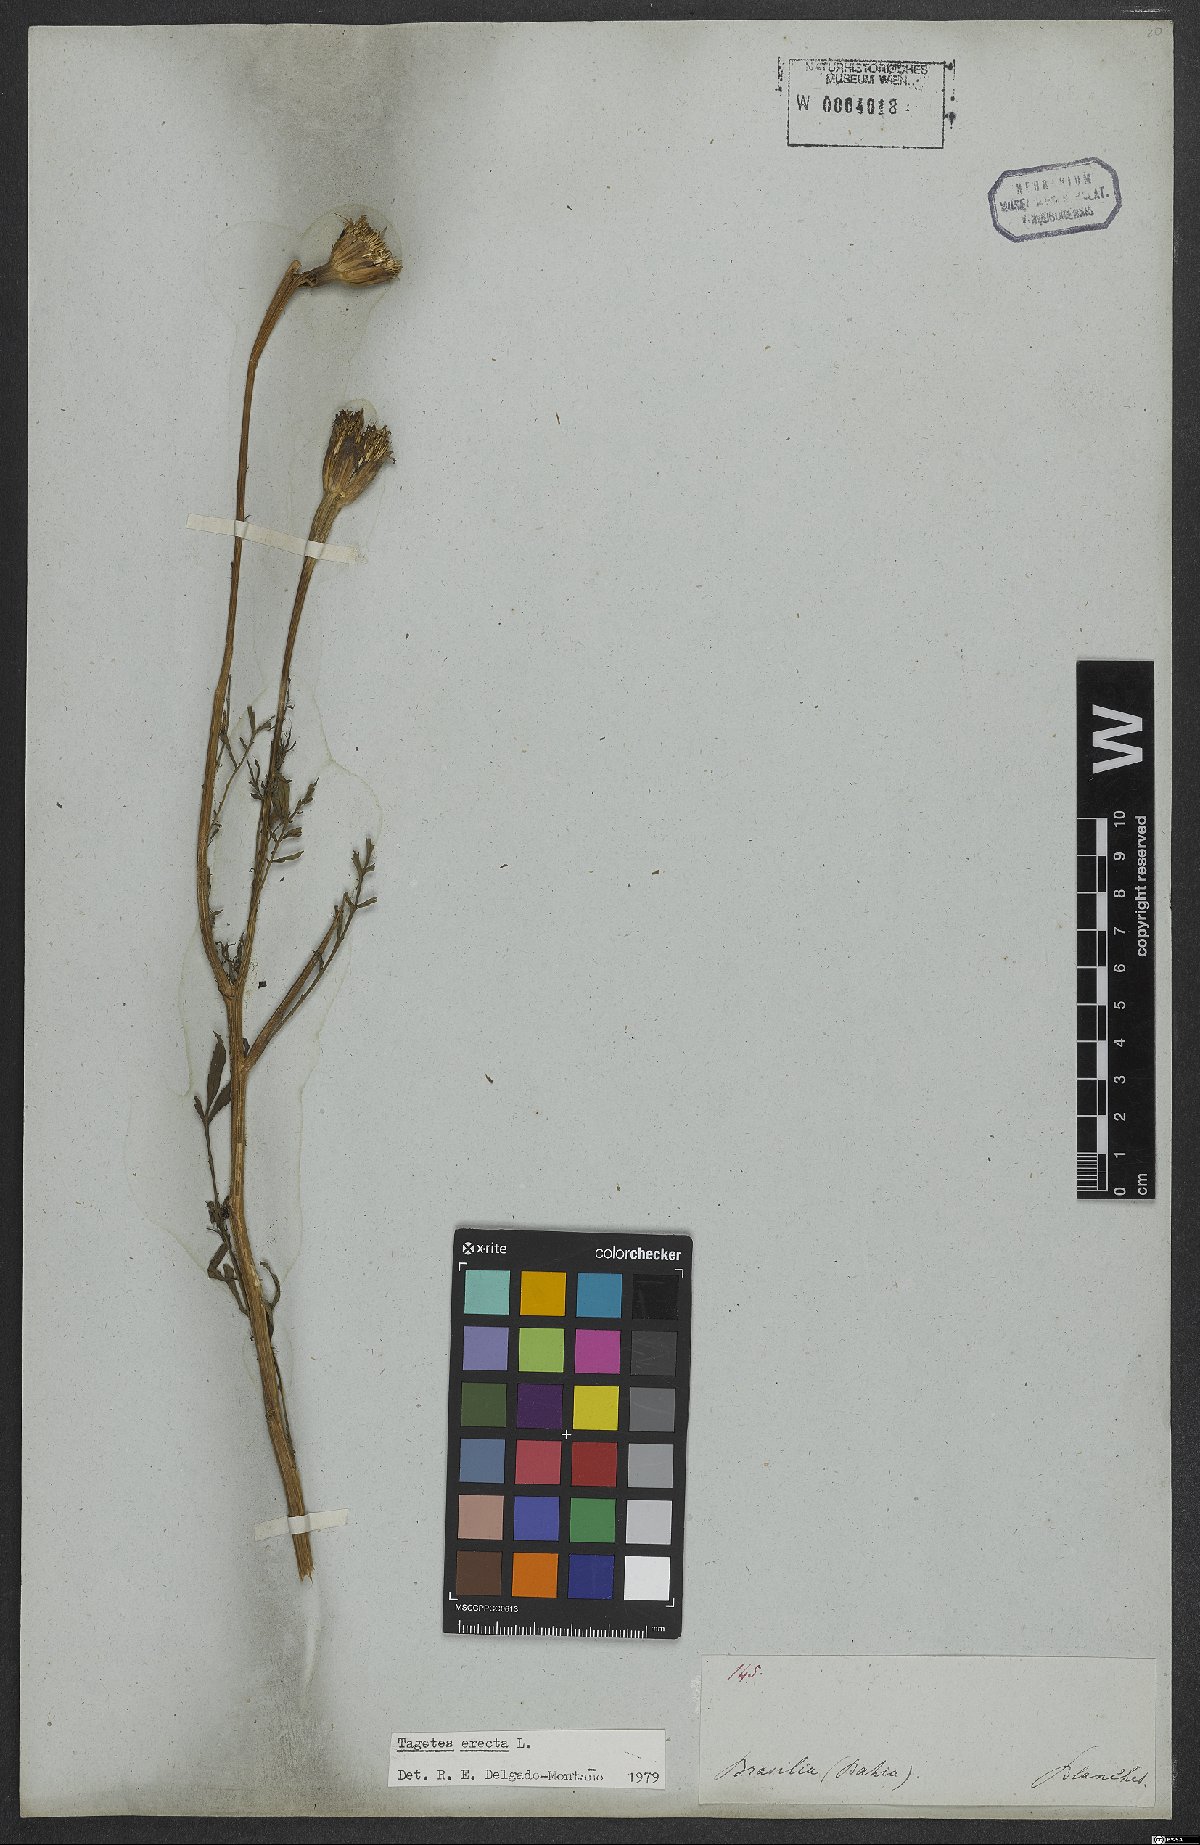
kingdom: Plantae
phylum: Tracheophyta
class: Magnoliopsida
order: Asterales
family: Asteraceae
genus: Tagetes
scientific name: Tagetes erecta
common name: African marigold
